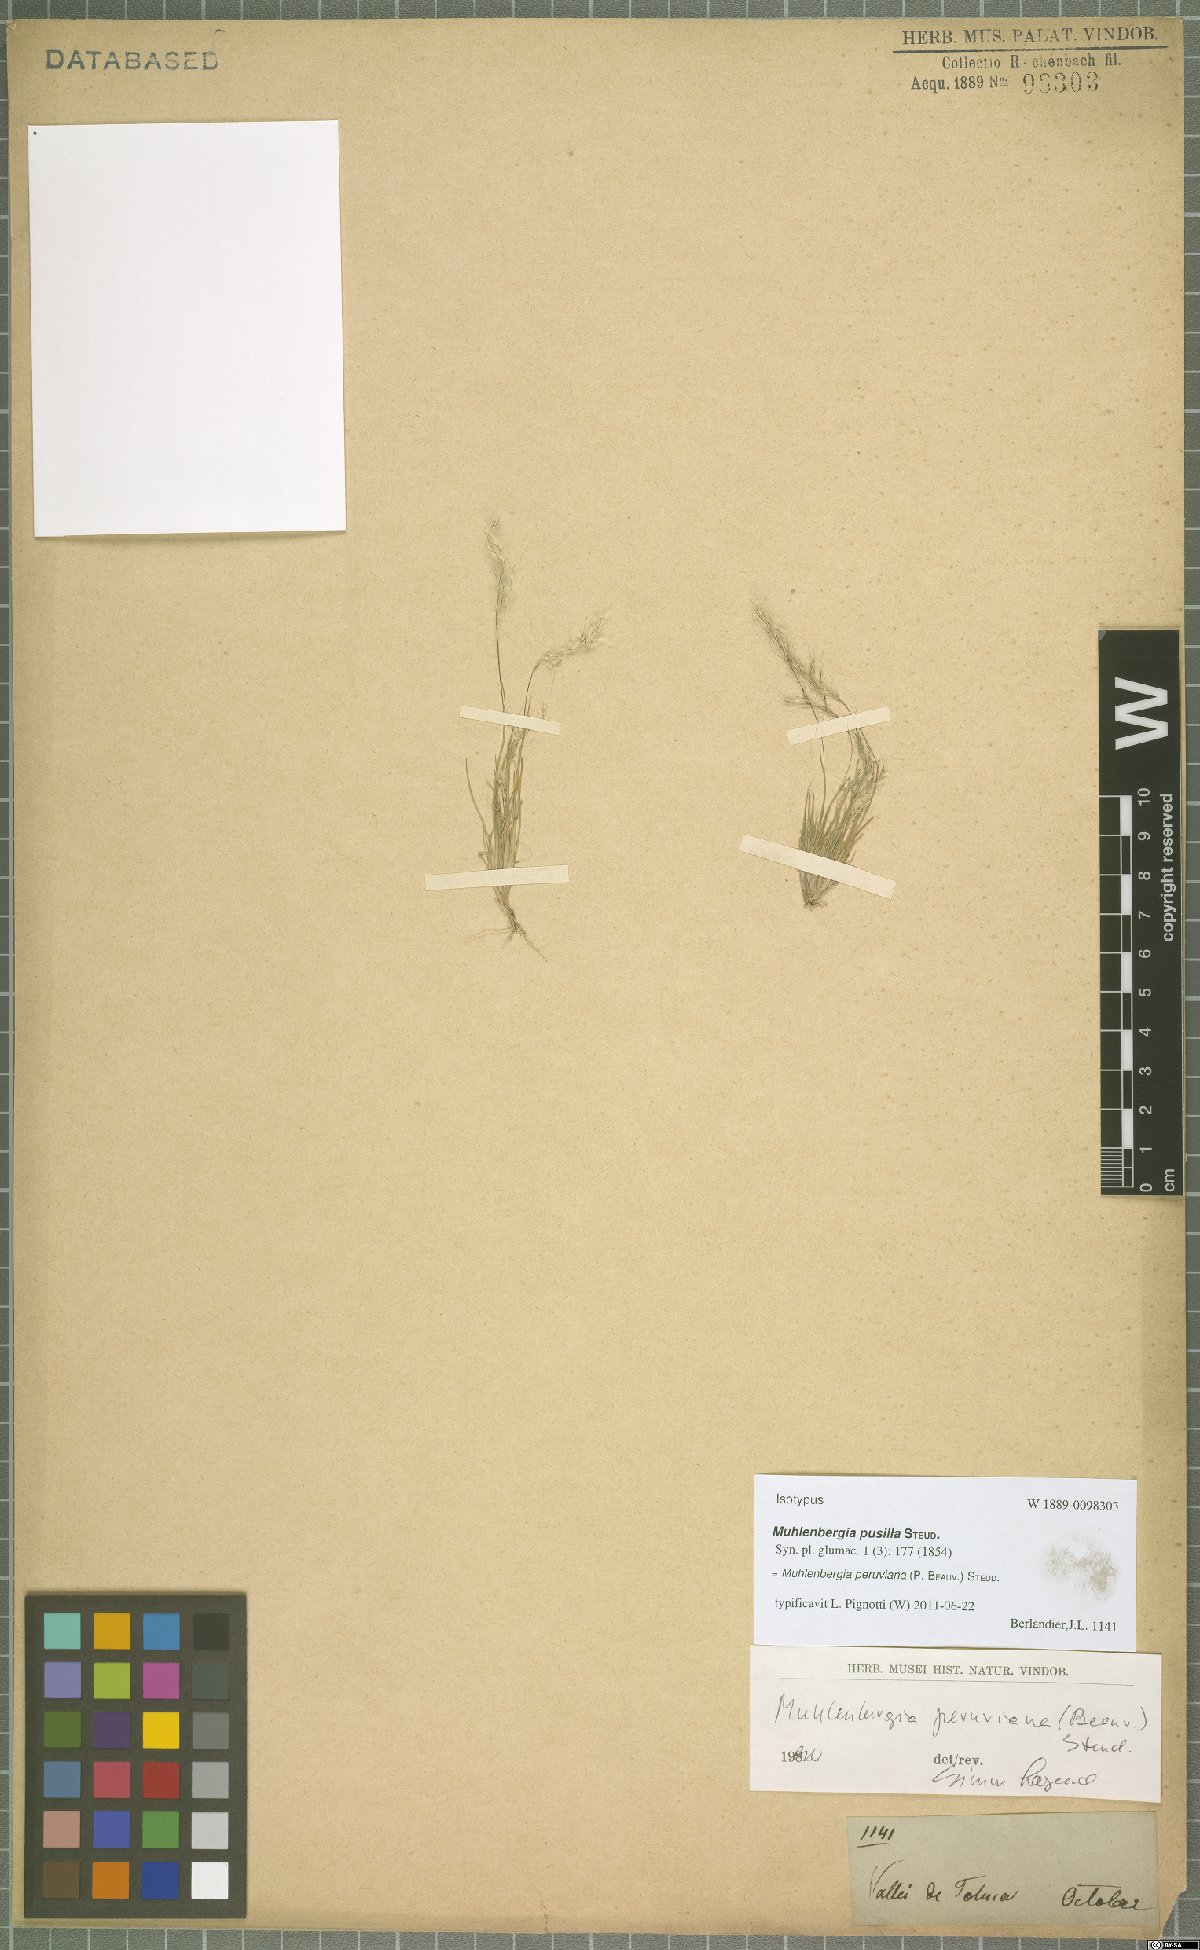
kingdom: Plantae
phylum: Tracheophyta
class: Liliopsida
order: Poales
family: Poaceae
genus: Muhlenbergia
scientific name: Muhlenbergia peruviana
